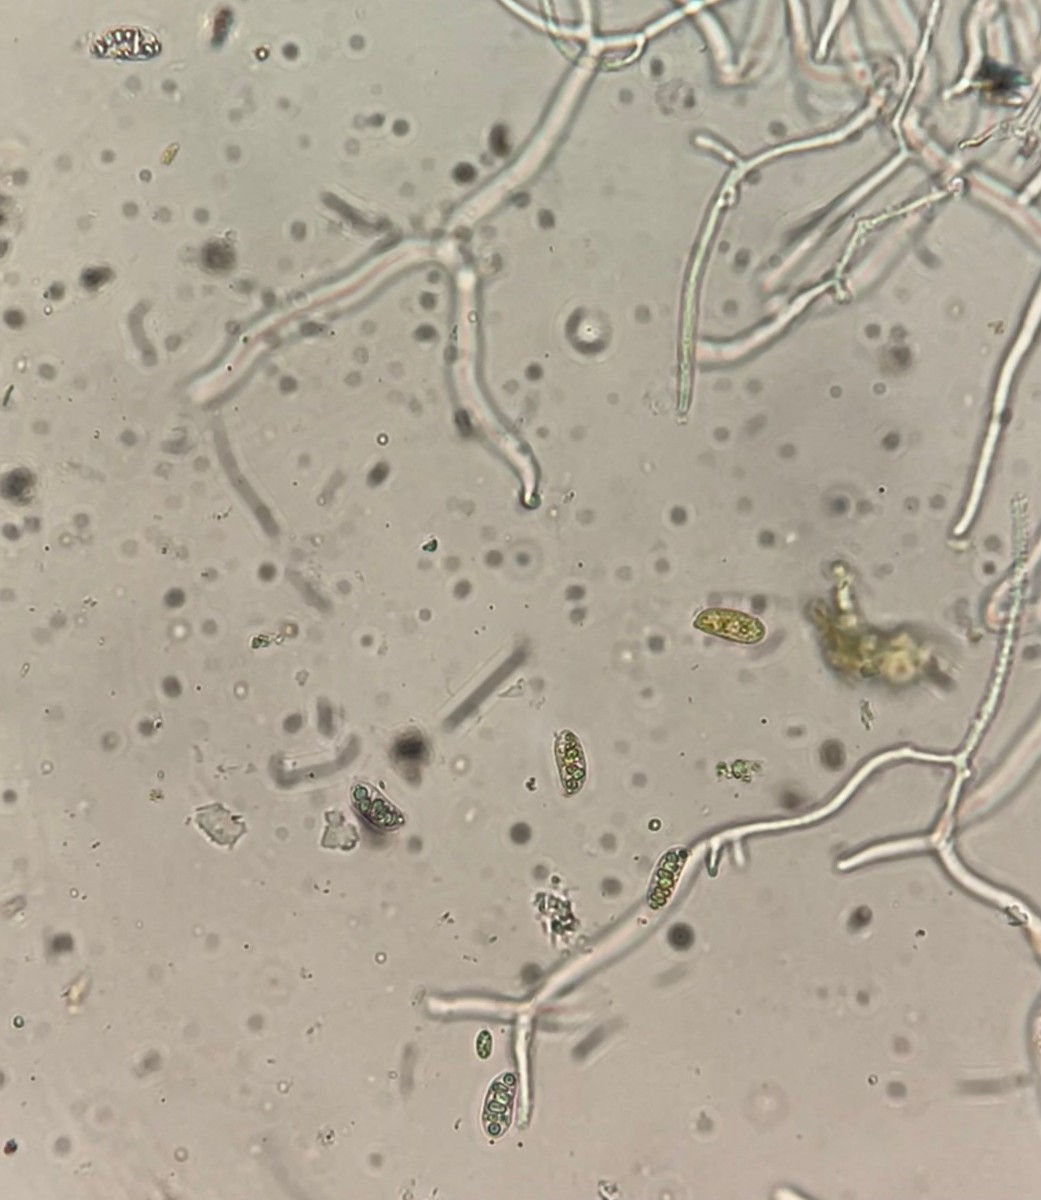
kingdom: Fungi
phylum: Basidiomycota
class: Dacrymycetes
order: Dacrymycetales
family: Dacrymycetaceae
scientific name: Dacrymycetaceae
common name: tåresvampfamilien
